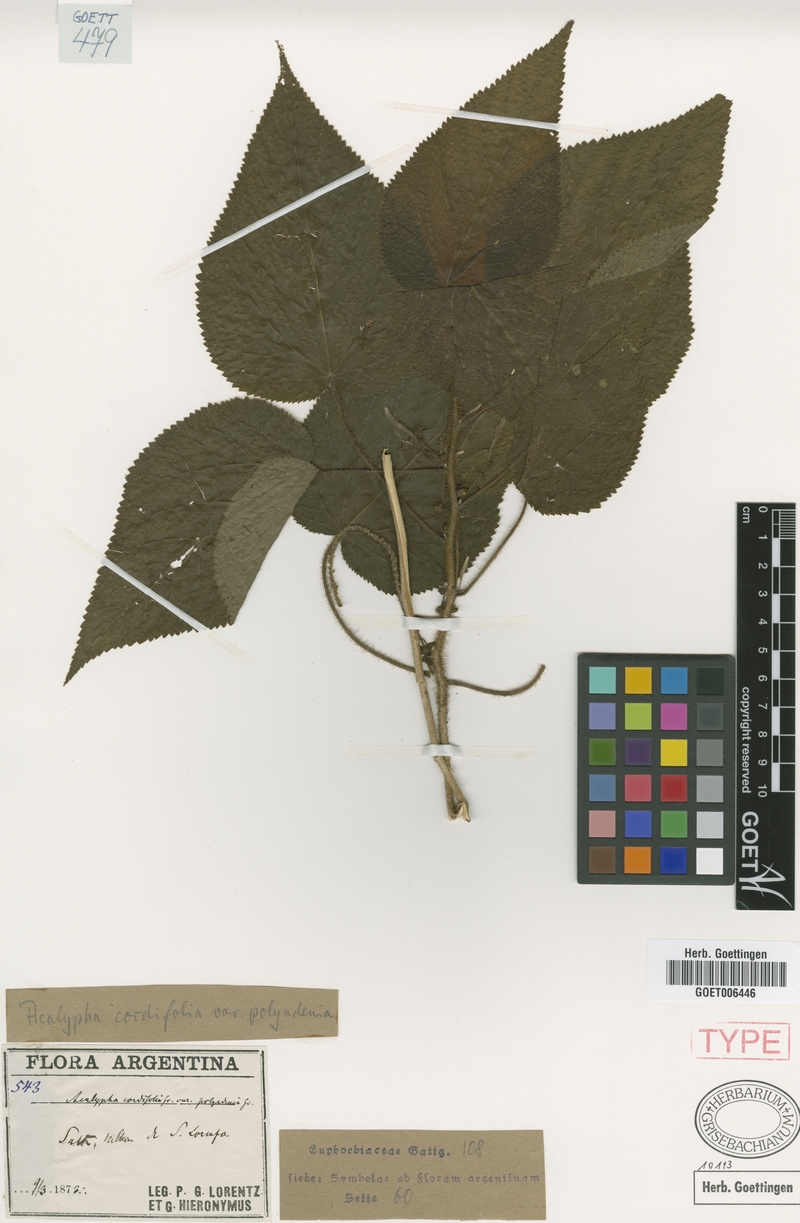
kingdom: Plantae
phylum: Tracheophyta
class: Magnoliopsida
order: Malpighiales
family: Euphorbiaceae
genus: Acalypha
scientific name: Acalypha plicata
